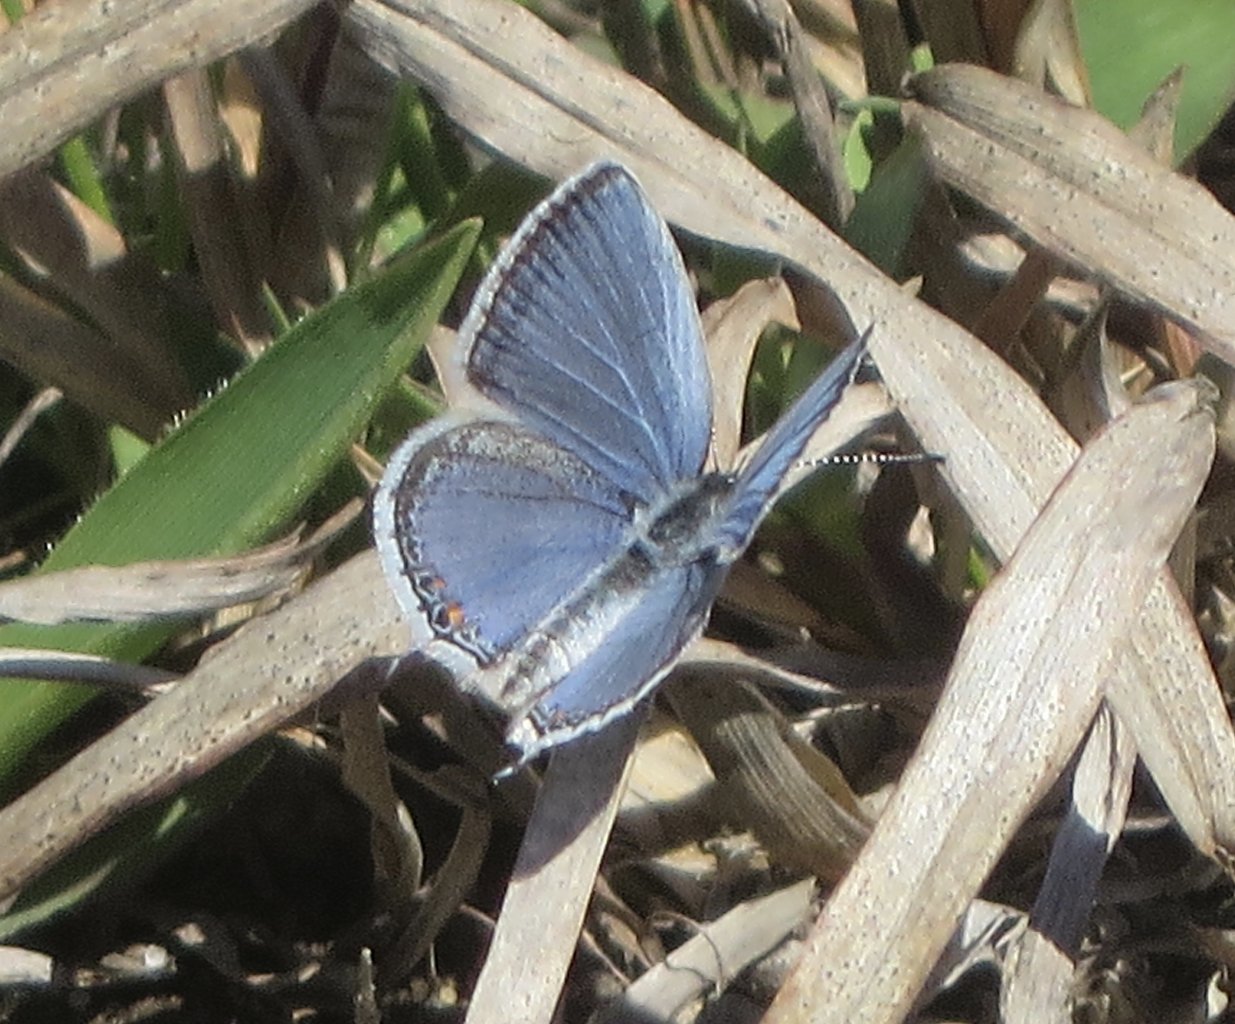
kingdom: Animalia
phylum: Arthropoda
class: Insecta
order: Lepidoptera
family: Lycaenidae
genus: Elkalyce
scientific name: Elkalyce comyntas
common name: Eastern Tailed-Blue
